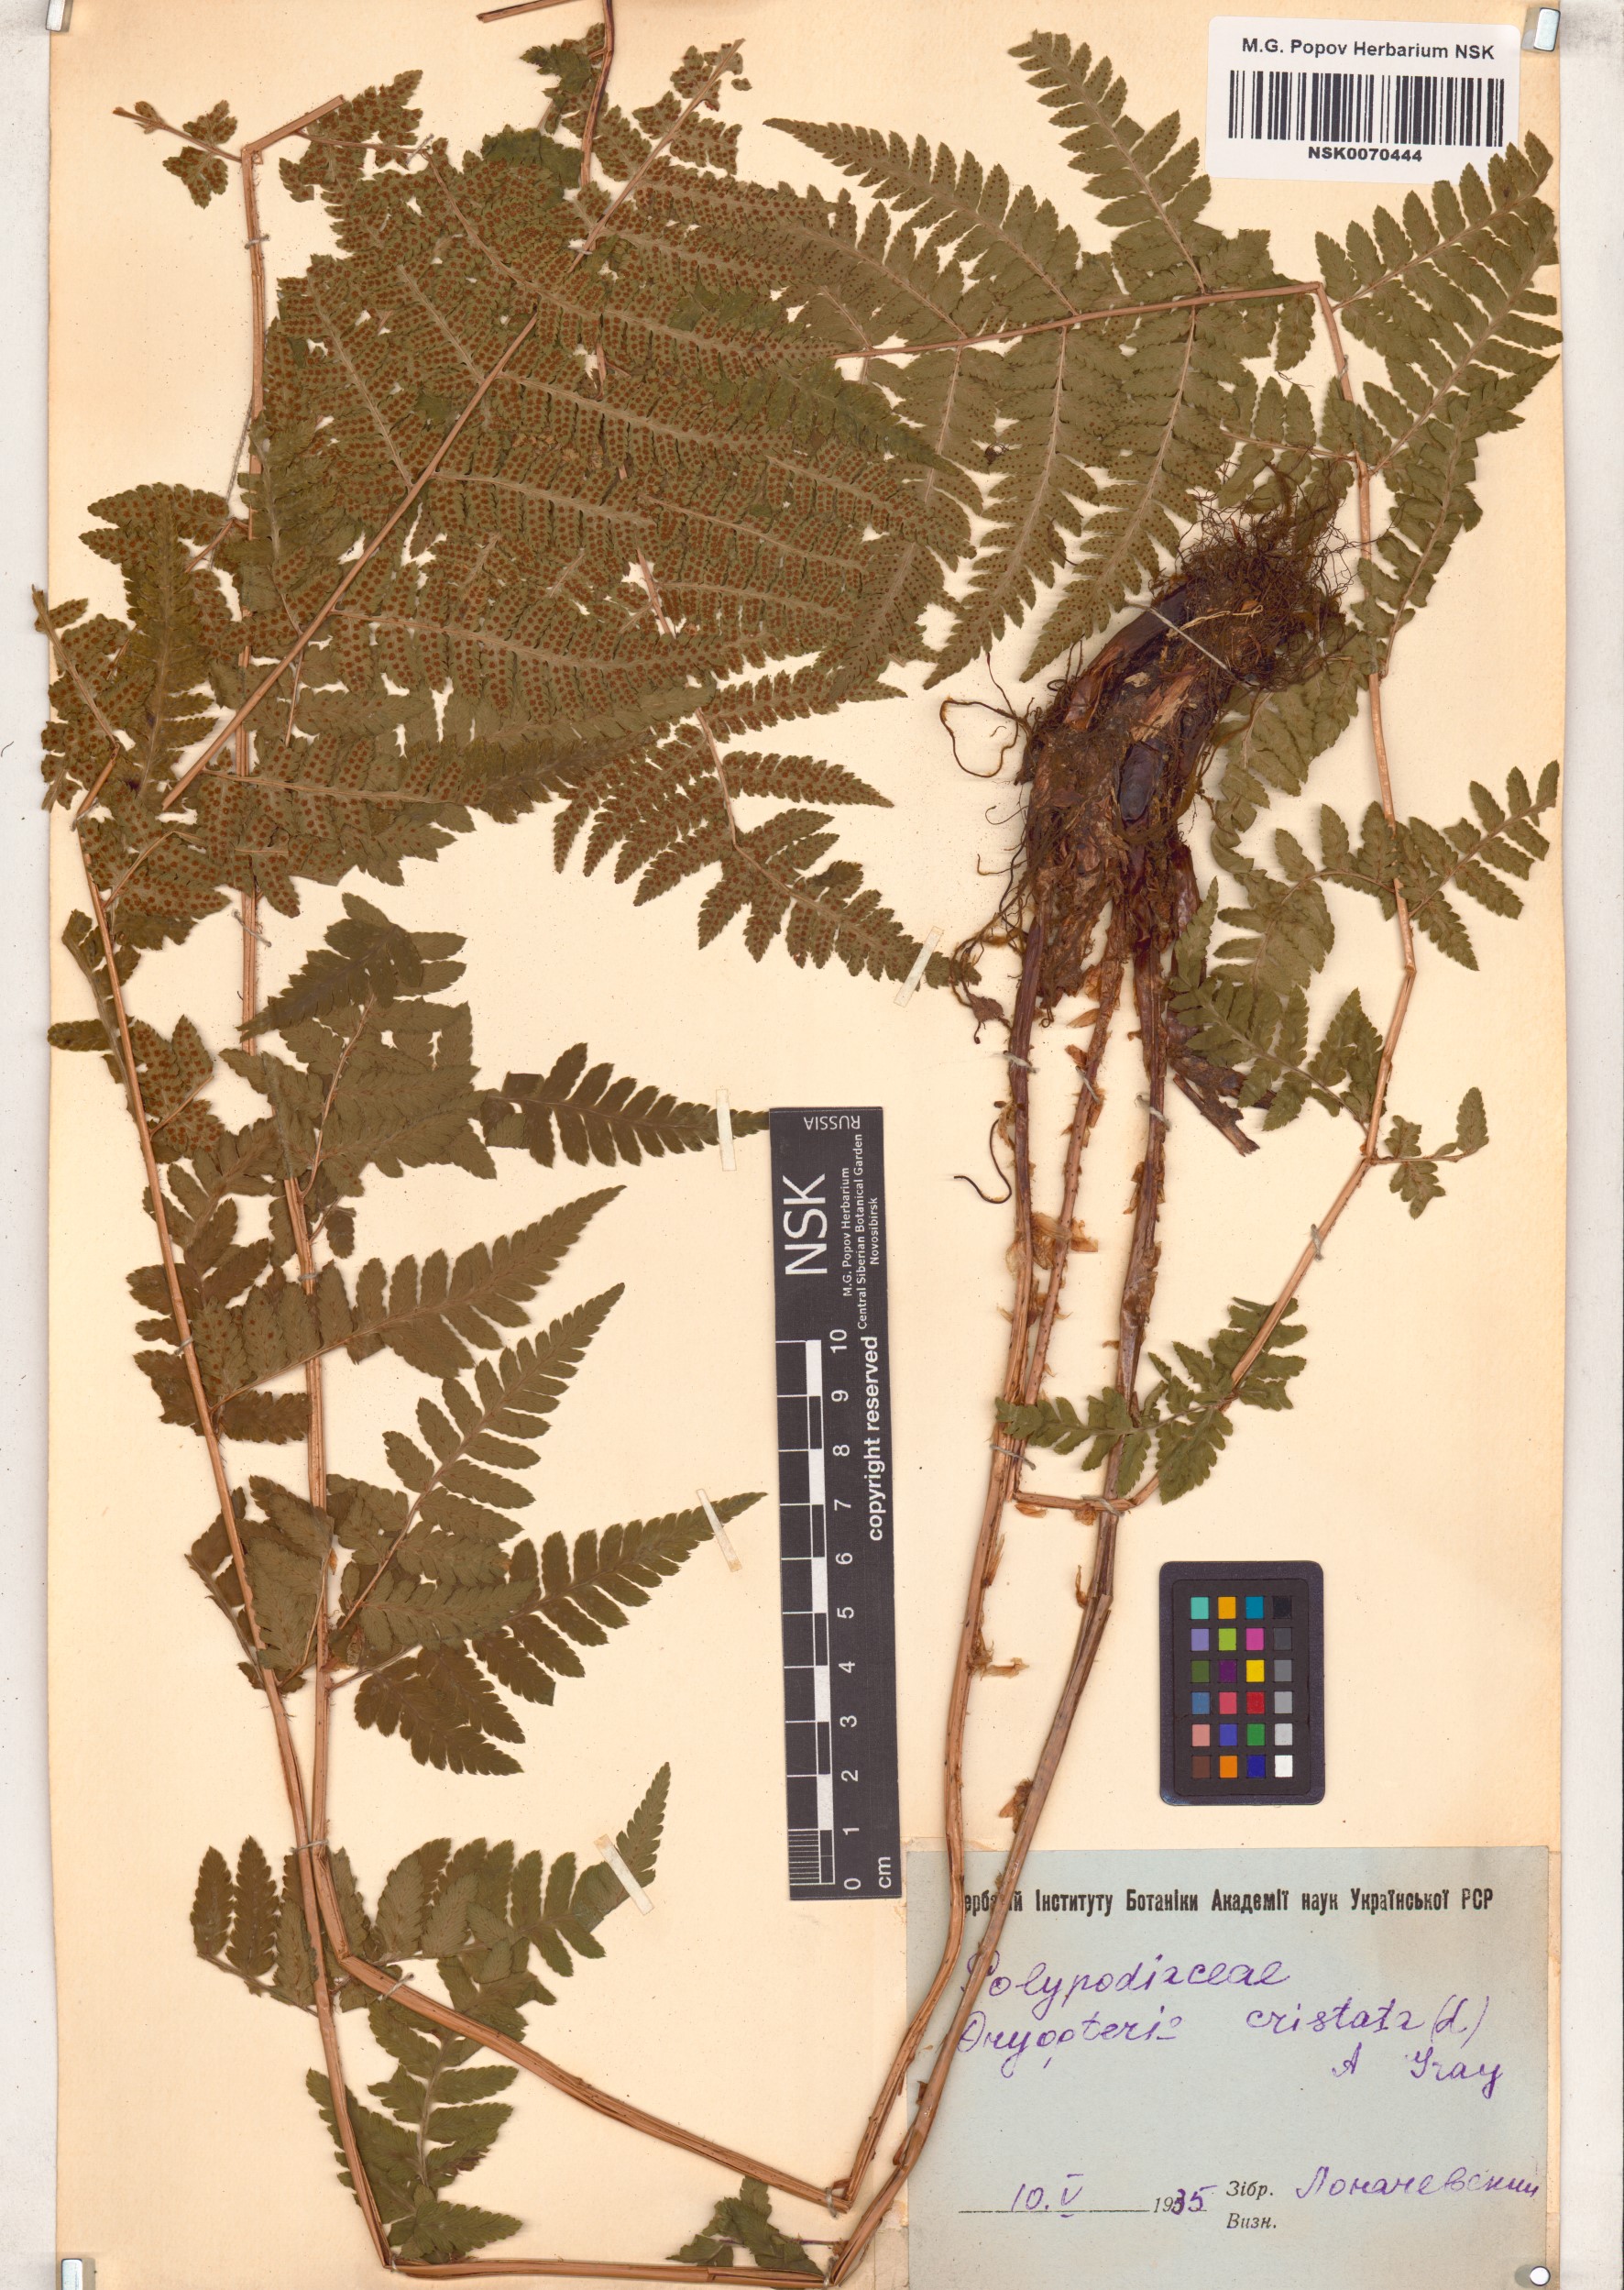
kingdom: Plantae
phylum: Tracheophyta
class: Polypodiopsida
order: Polypodiales
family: Dryopteridaceae
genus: Dryopteris
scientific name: Dryopteris cristata
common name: Crested wood fern
